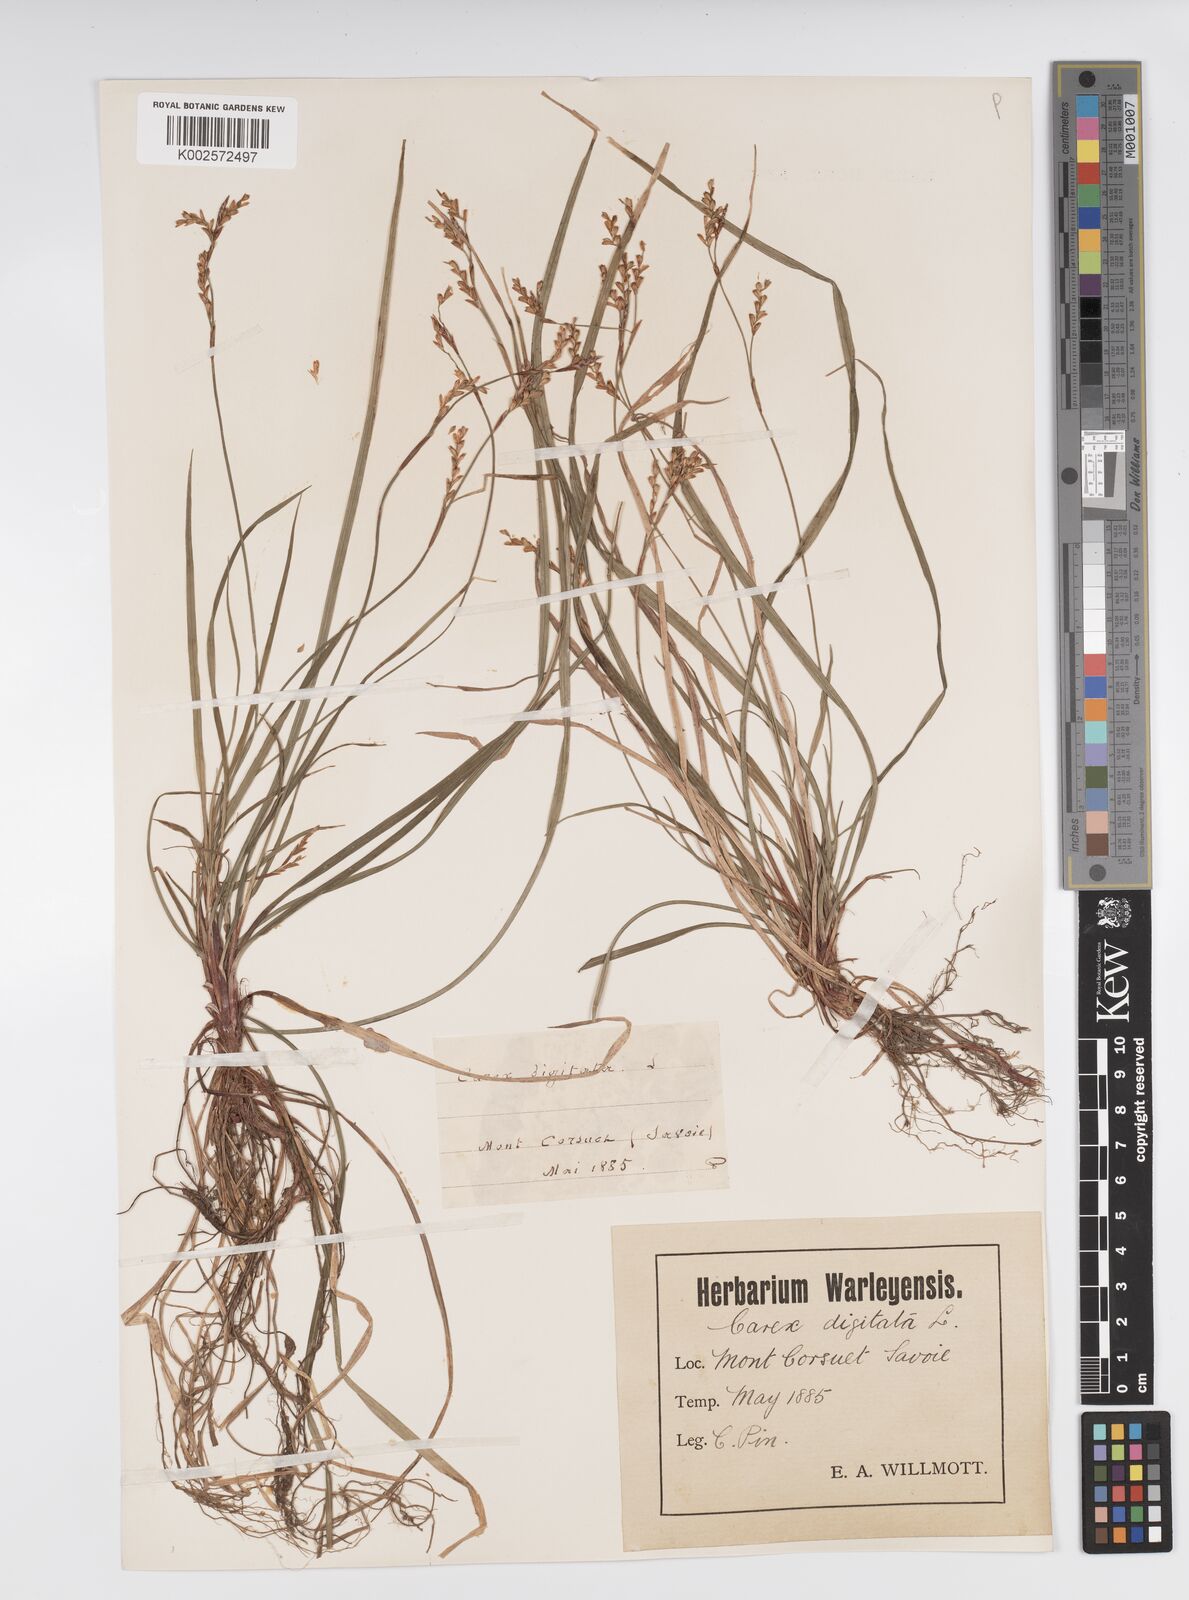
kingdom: Plantae
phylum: Tracheophyta
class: Liliopsida
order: Poales
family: Cyperaceae
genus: Carex
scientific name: Carex digitata
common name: Fingered sedge
